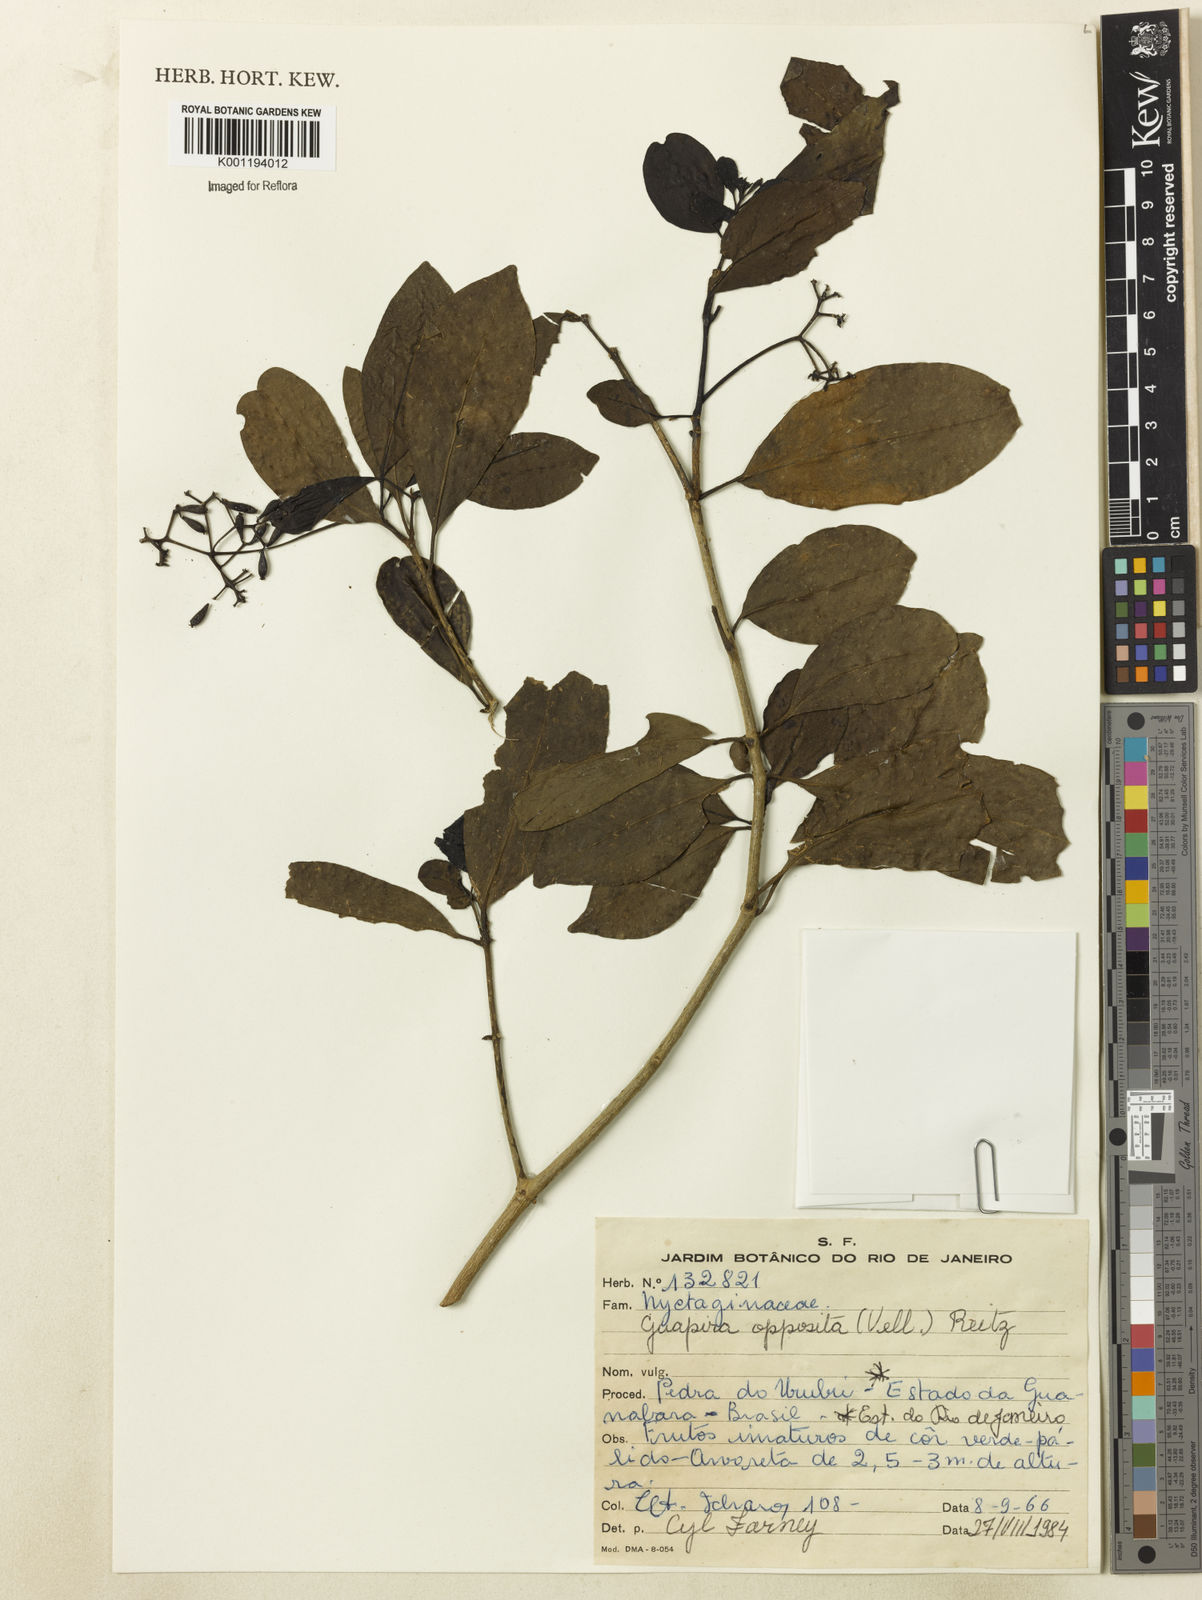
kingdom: Plantae
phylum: Tracheophyta
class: Magnoliopsida
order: Caryophyllales
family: Nyctaginaceae
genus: Guapira
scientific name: Guapira opposita
